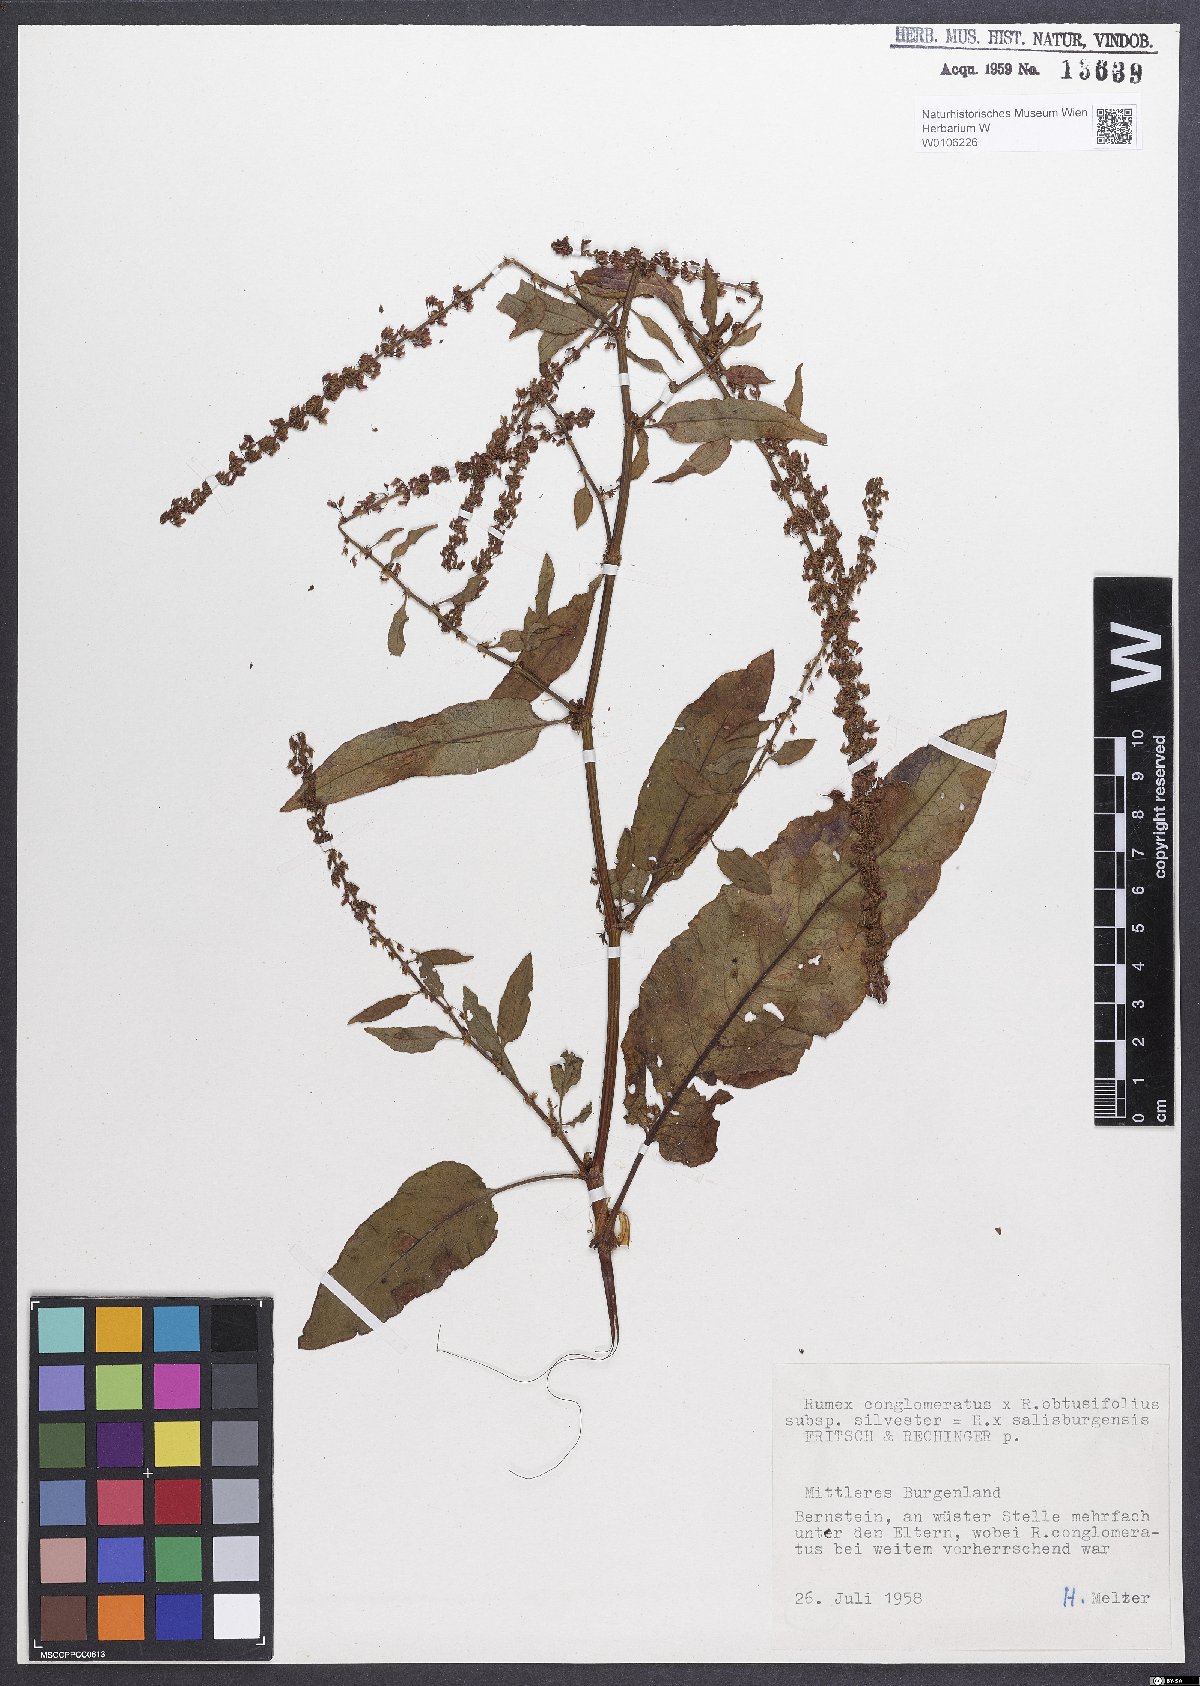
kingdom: Plantae
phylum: Tracheophyta
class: Magnoliopsida
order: Caryophyllales
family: Polygonaceae
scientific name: Polygonaceae
